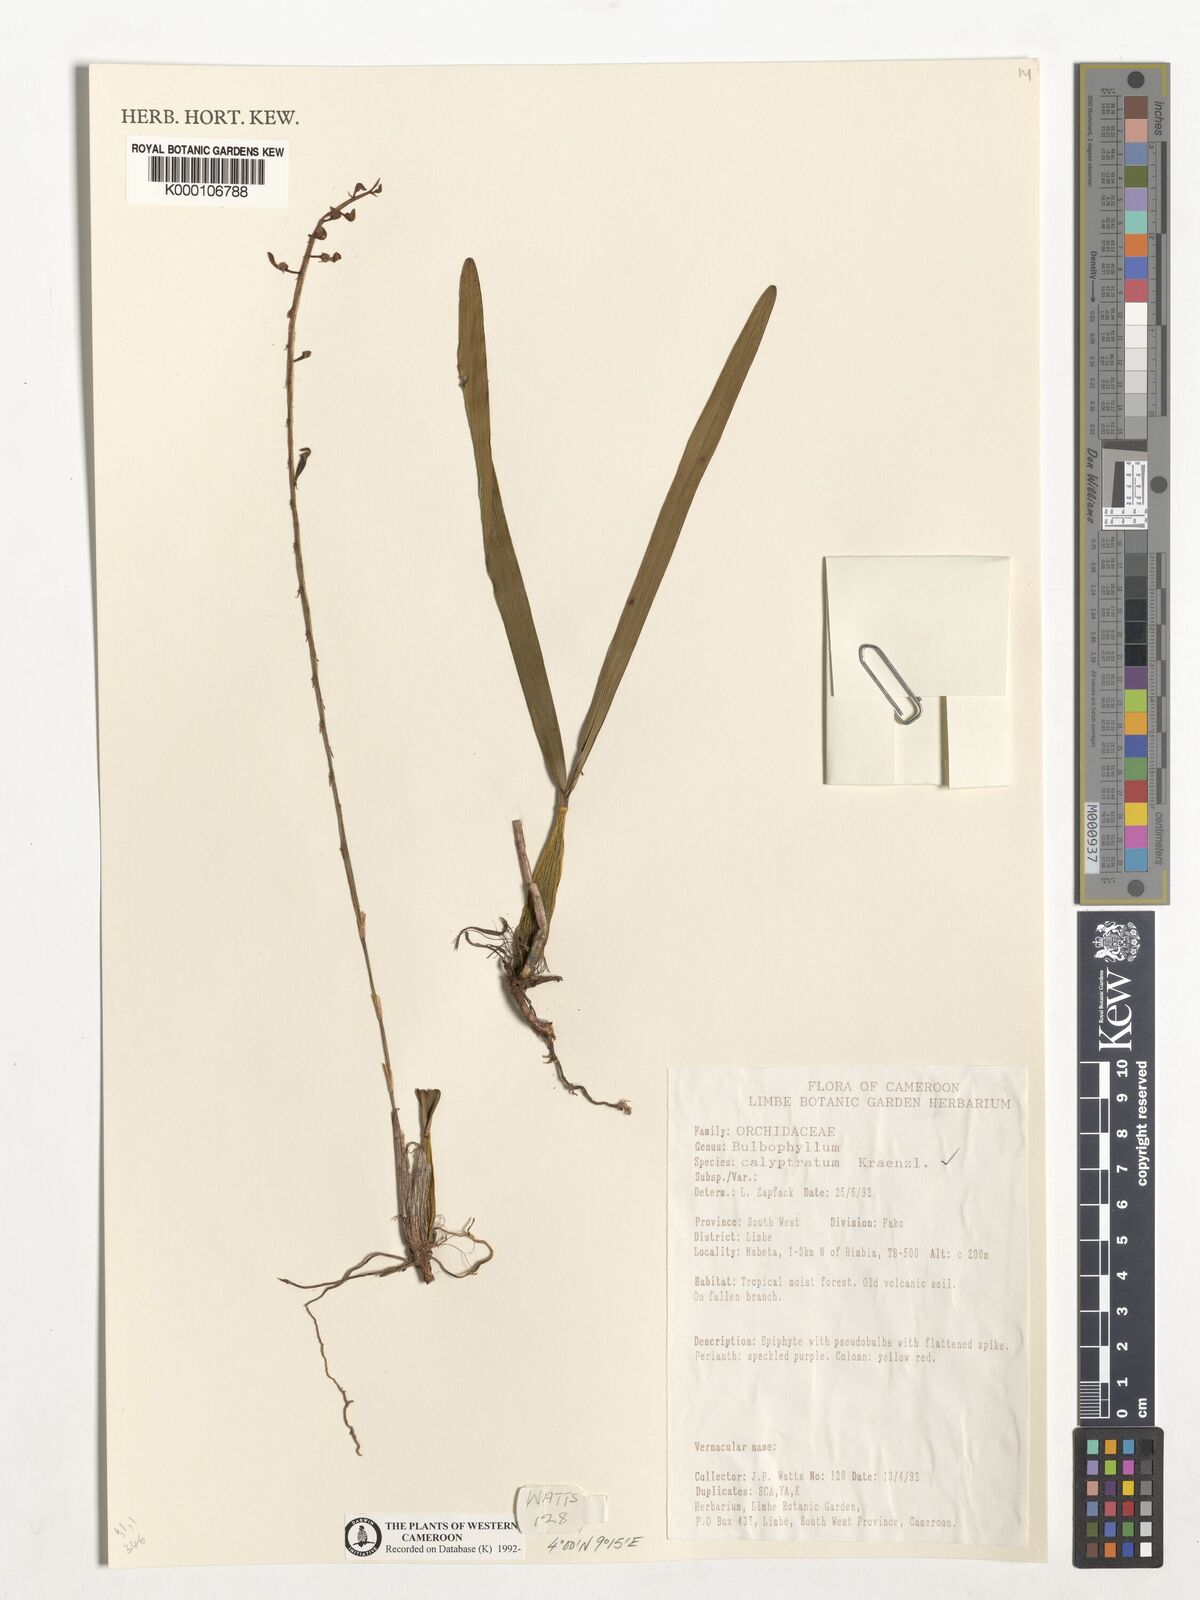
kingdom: Plantae
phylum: Tracheophyta
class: Liliopsida
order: Asparagales
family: Orchidaceae
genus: Bulbophyllum
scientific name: Bulbophyllum calyptratum
